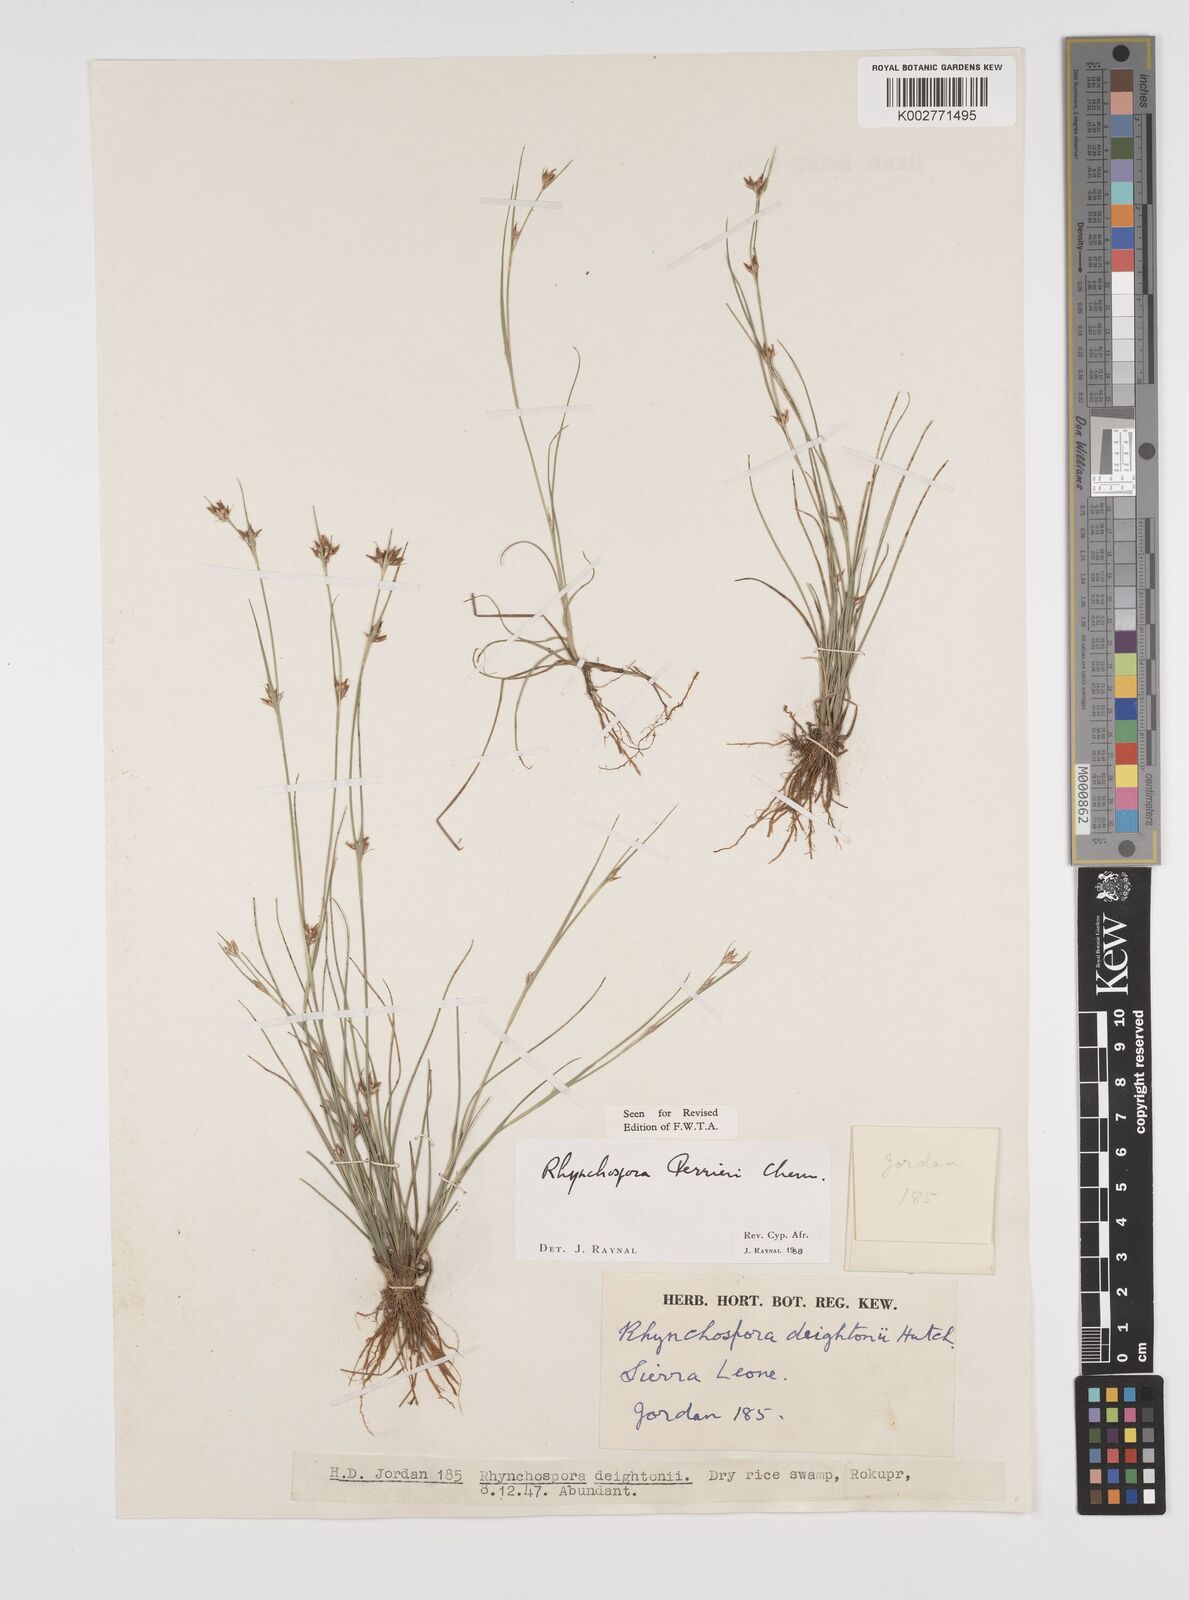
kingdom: Plantae
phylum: Tracheophyta
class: Liliopsida
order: Poales
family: Cyperaceae
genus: Rhynchospora
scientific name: Rhynchospora perrieri
